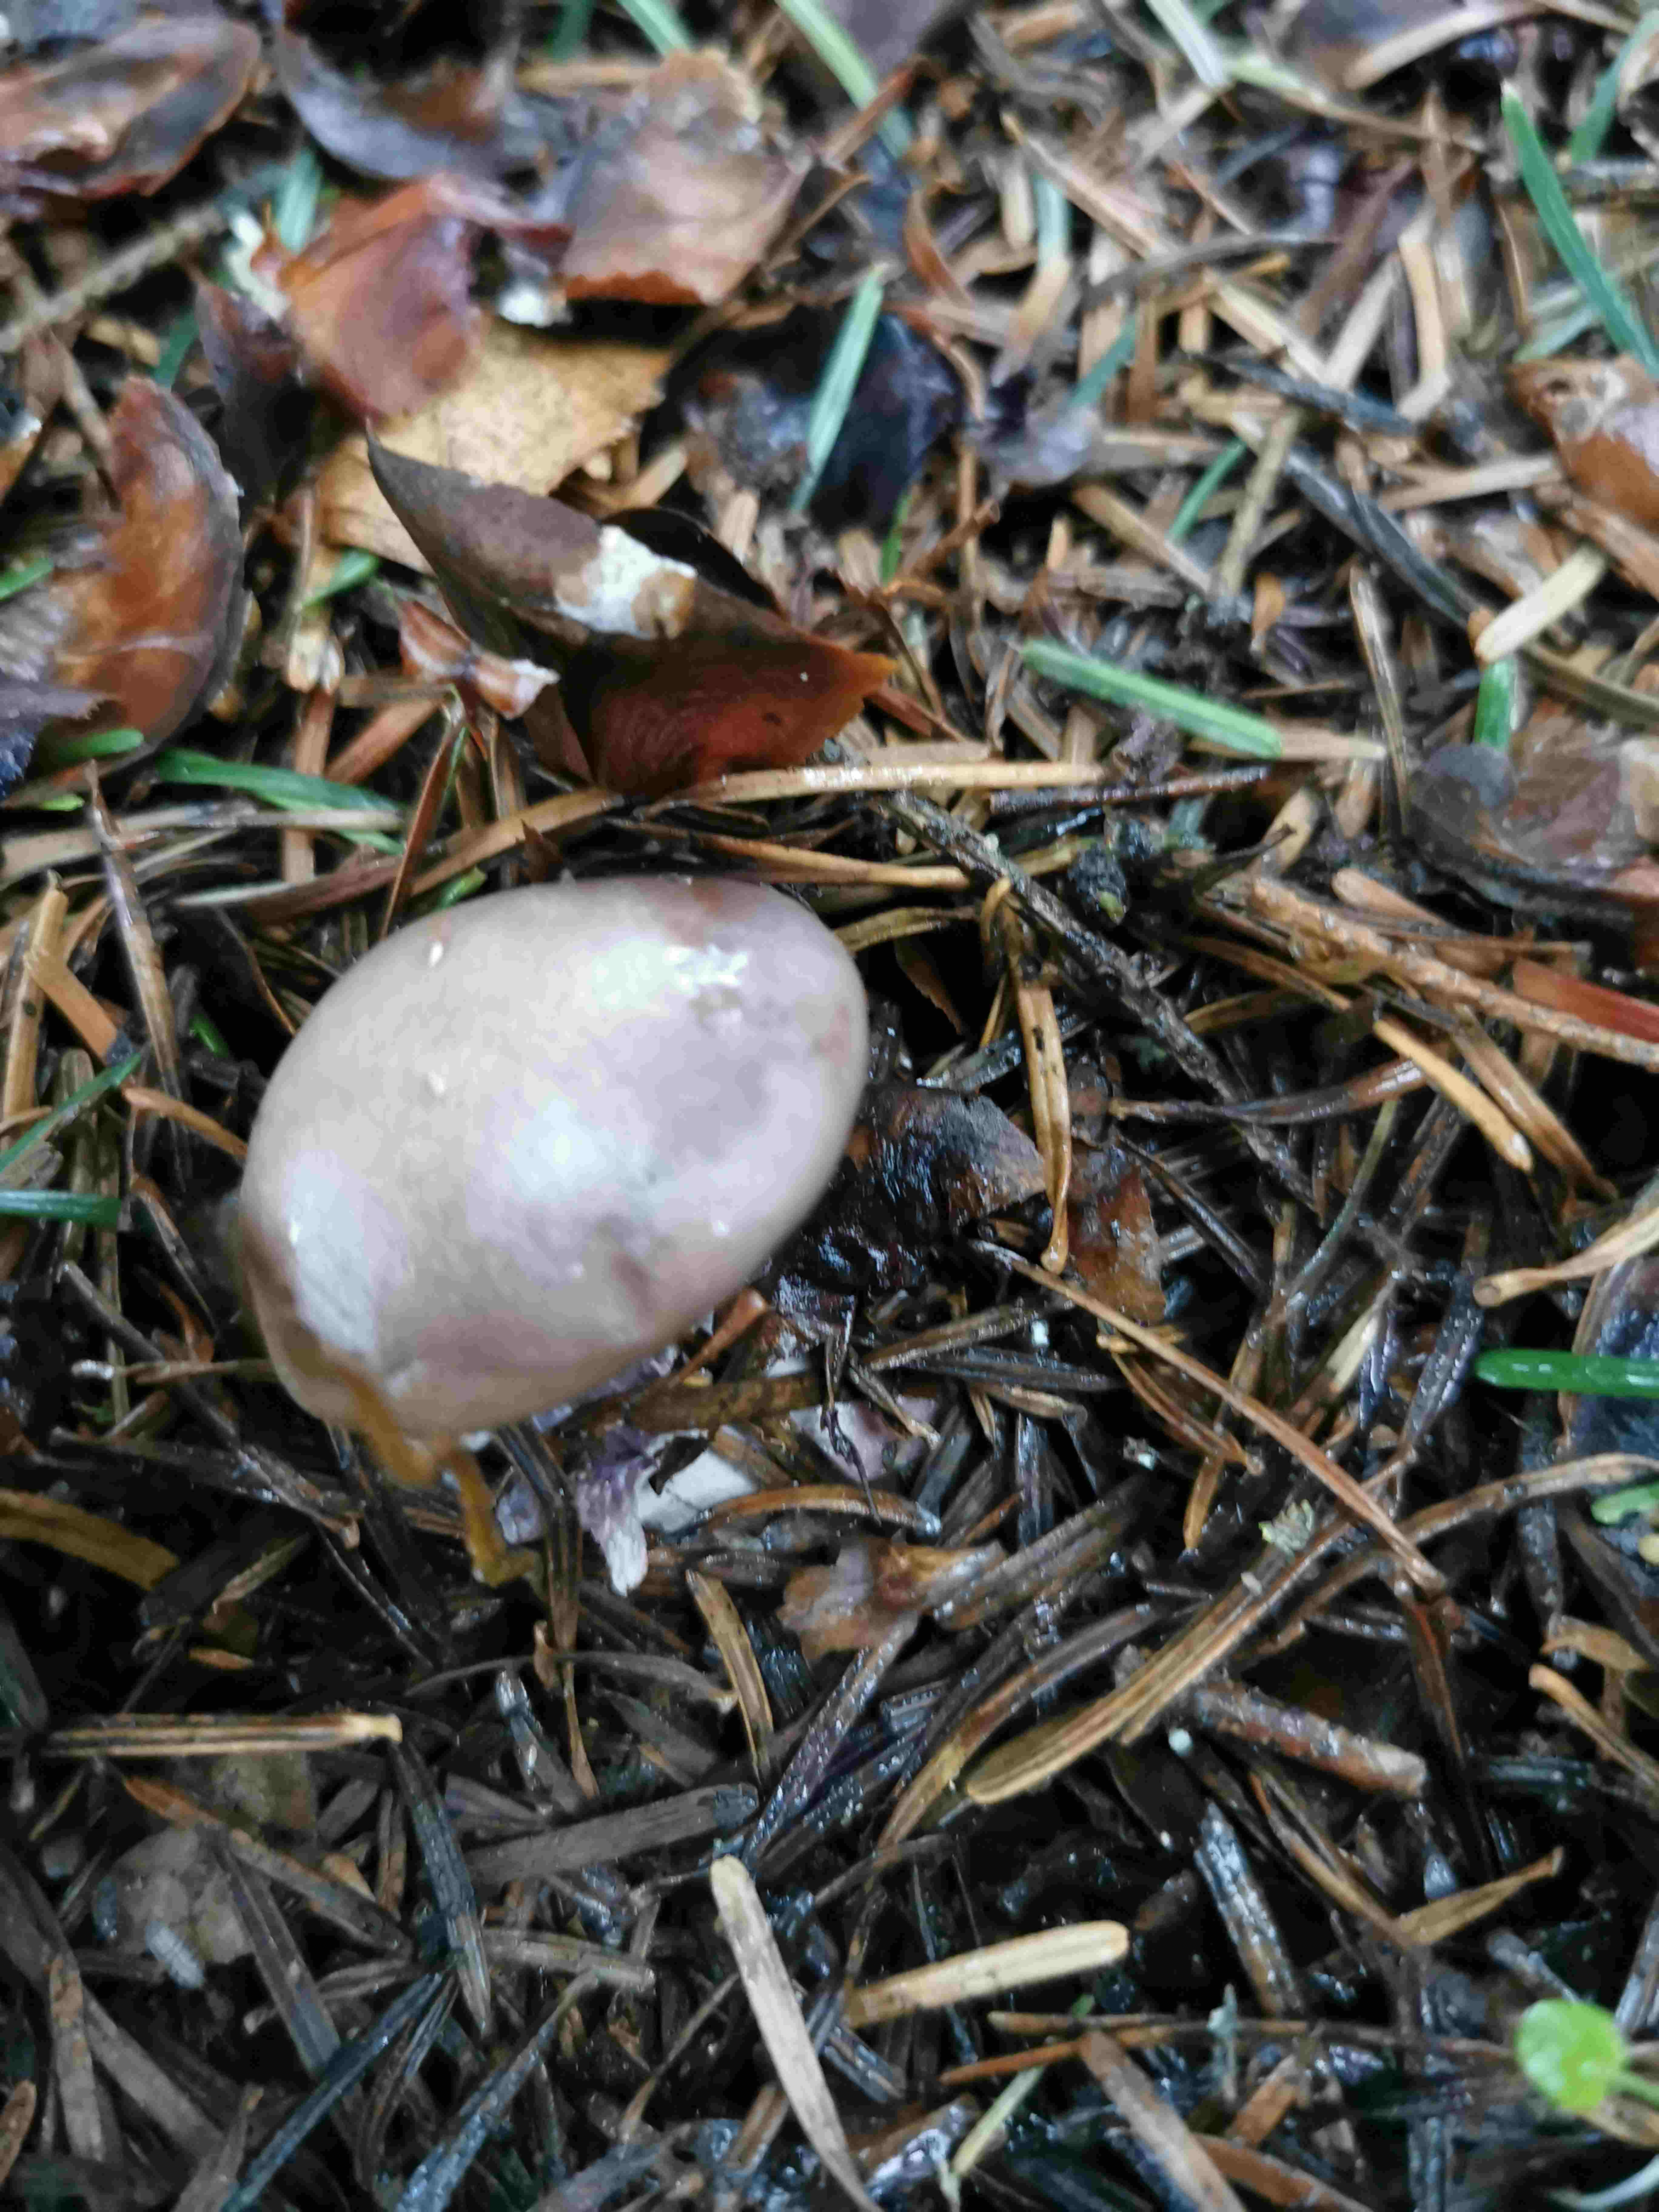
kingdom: Fungi
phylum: Basidiomycota
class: Agaricomycetes
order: Agaricales
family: Tricholomataceae
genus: Lepista
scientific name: Lepista nuda
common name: violet hekseringshat
